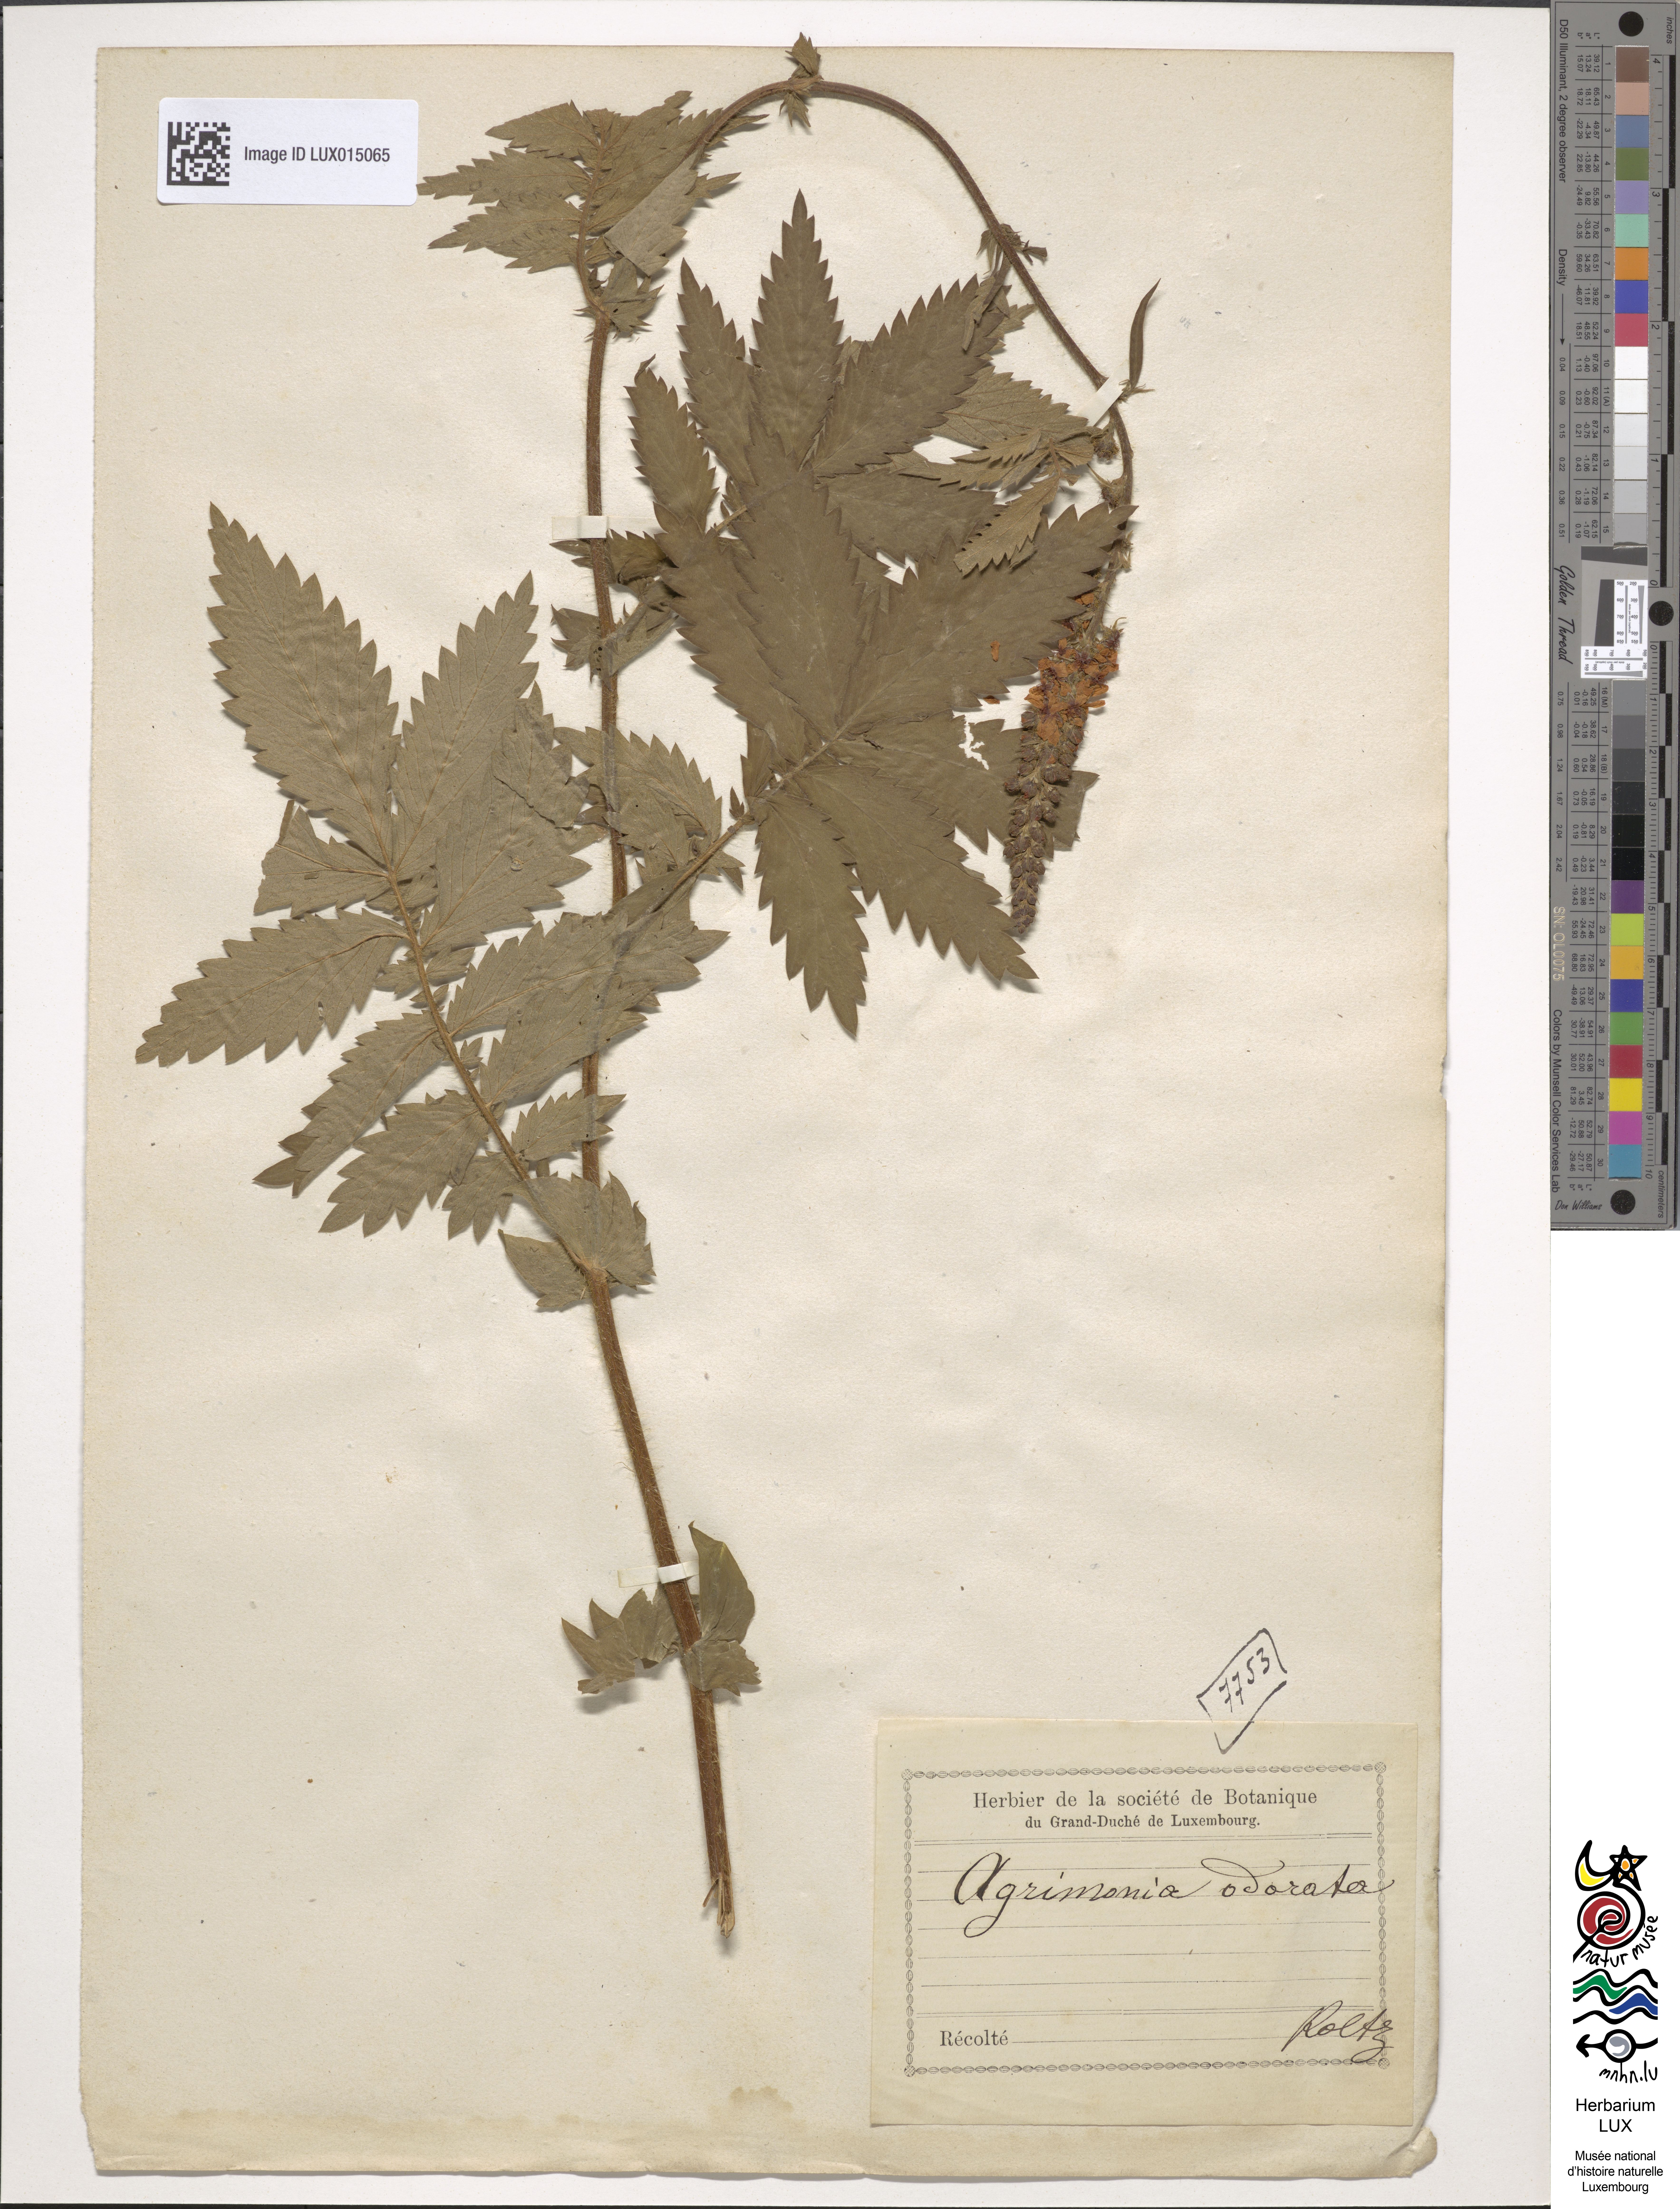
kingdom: Plantae
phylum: Tracheophyta
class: Magnoliopsida
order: Rosales
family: Rosaceae
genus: Agrimonia
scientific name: Agrimonia repens
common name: Creeping agrimony
